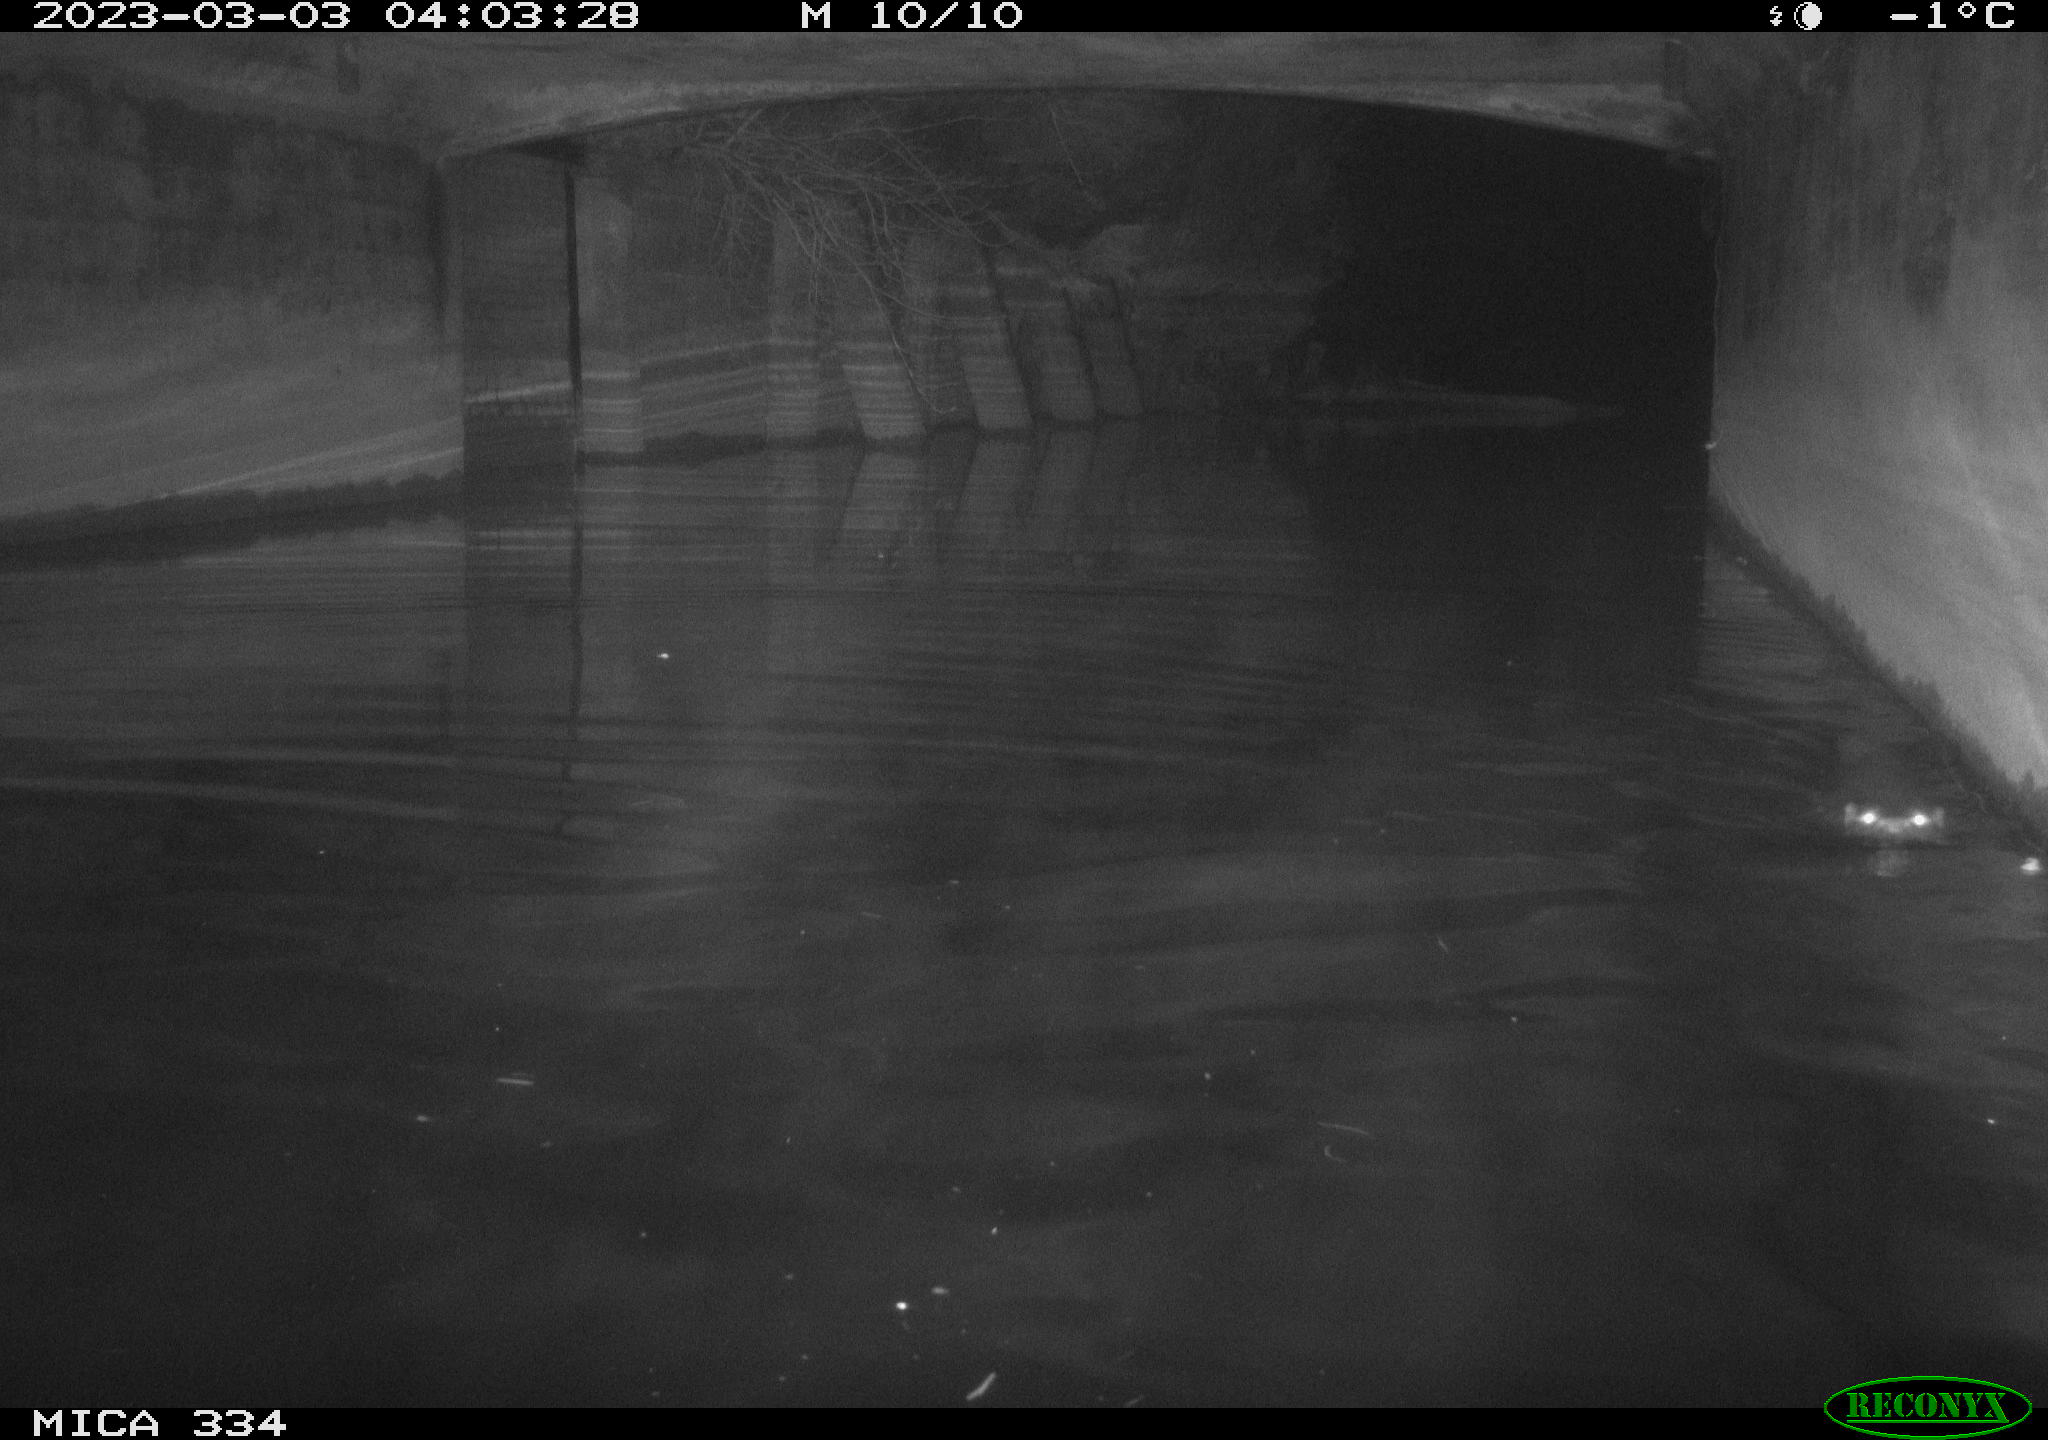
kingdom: Animalia
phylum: Chordata
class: Mammalia
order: Carnivora
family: Mustelidae
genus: Lutra
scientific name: Lutra lutra
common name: European otter
